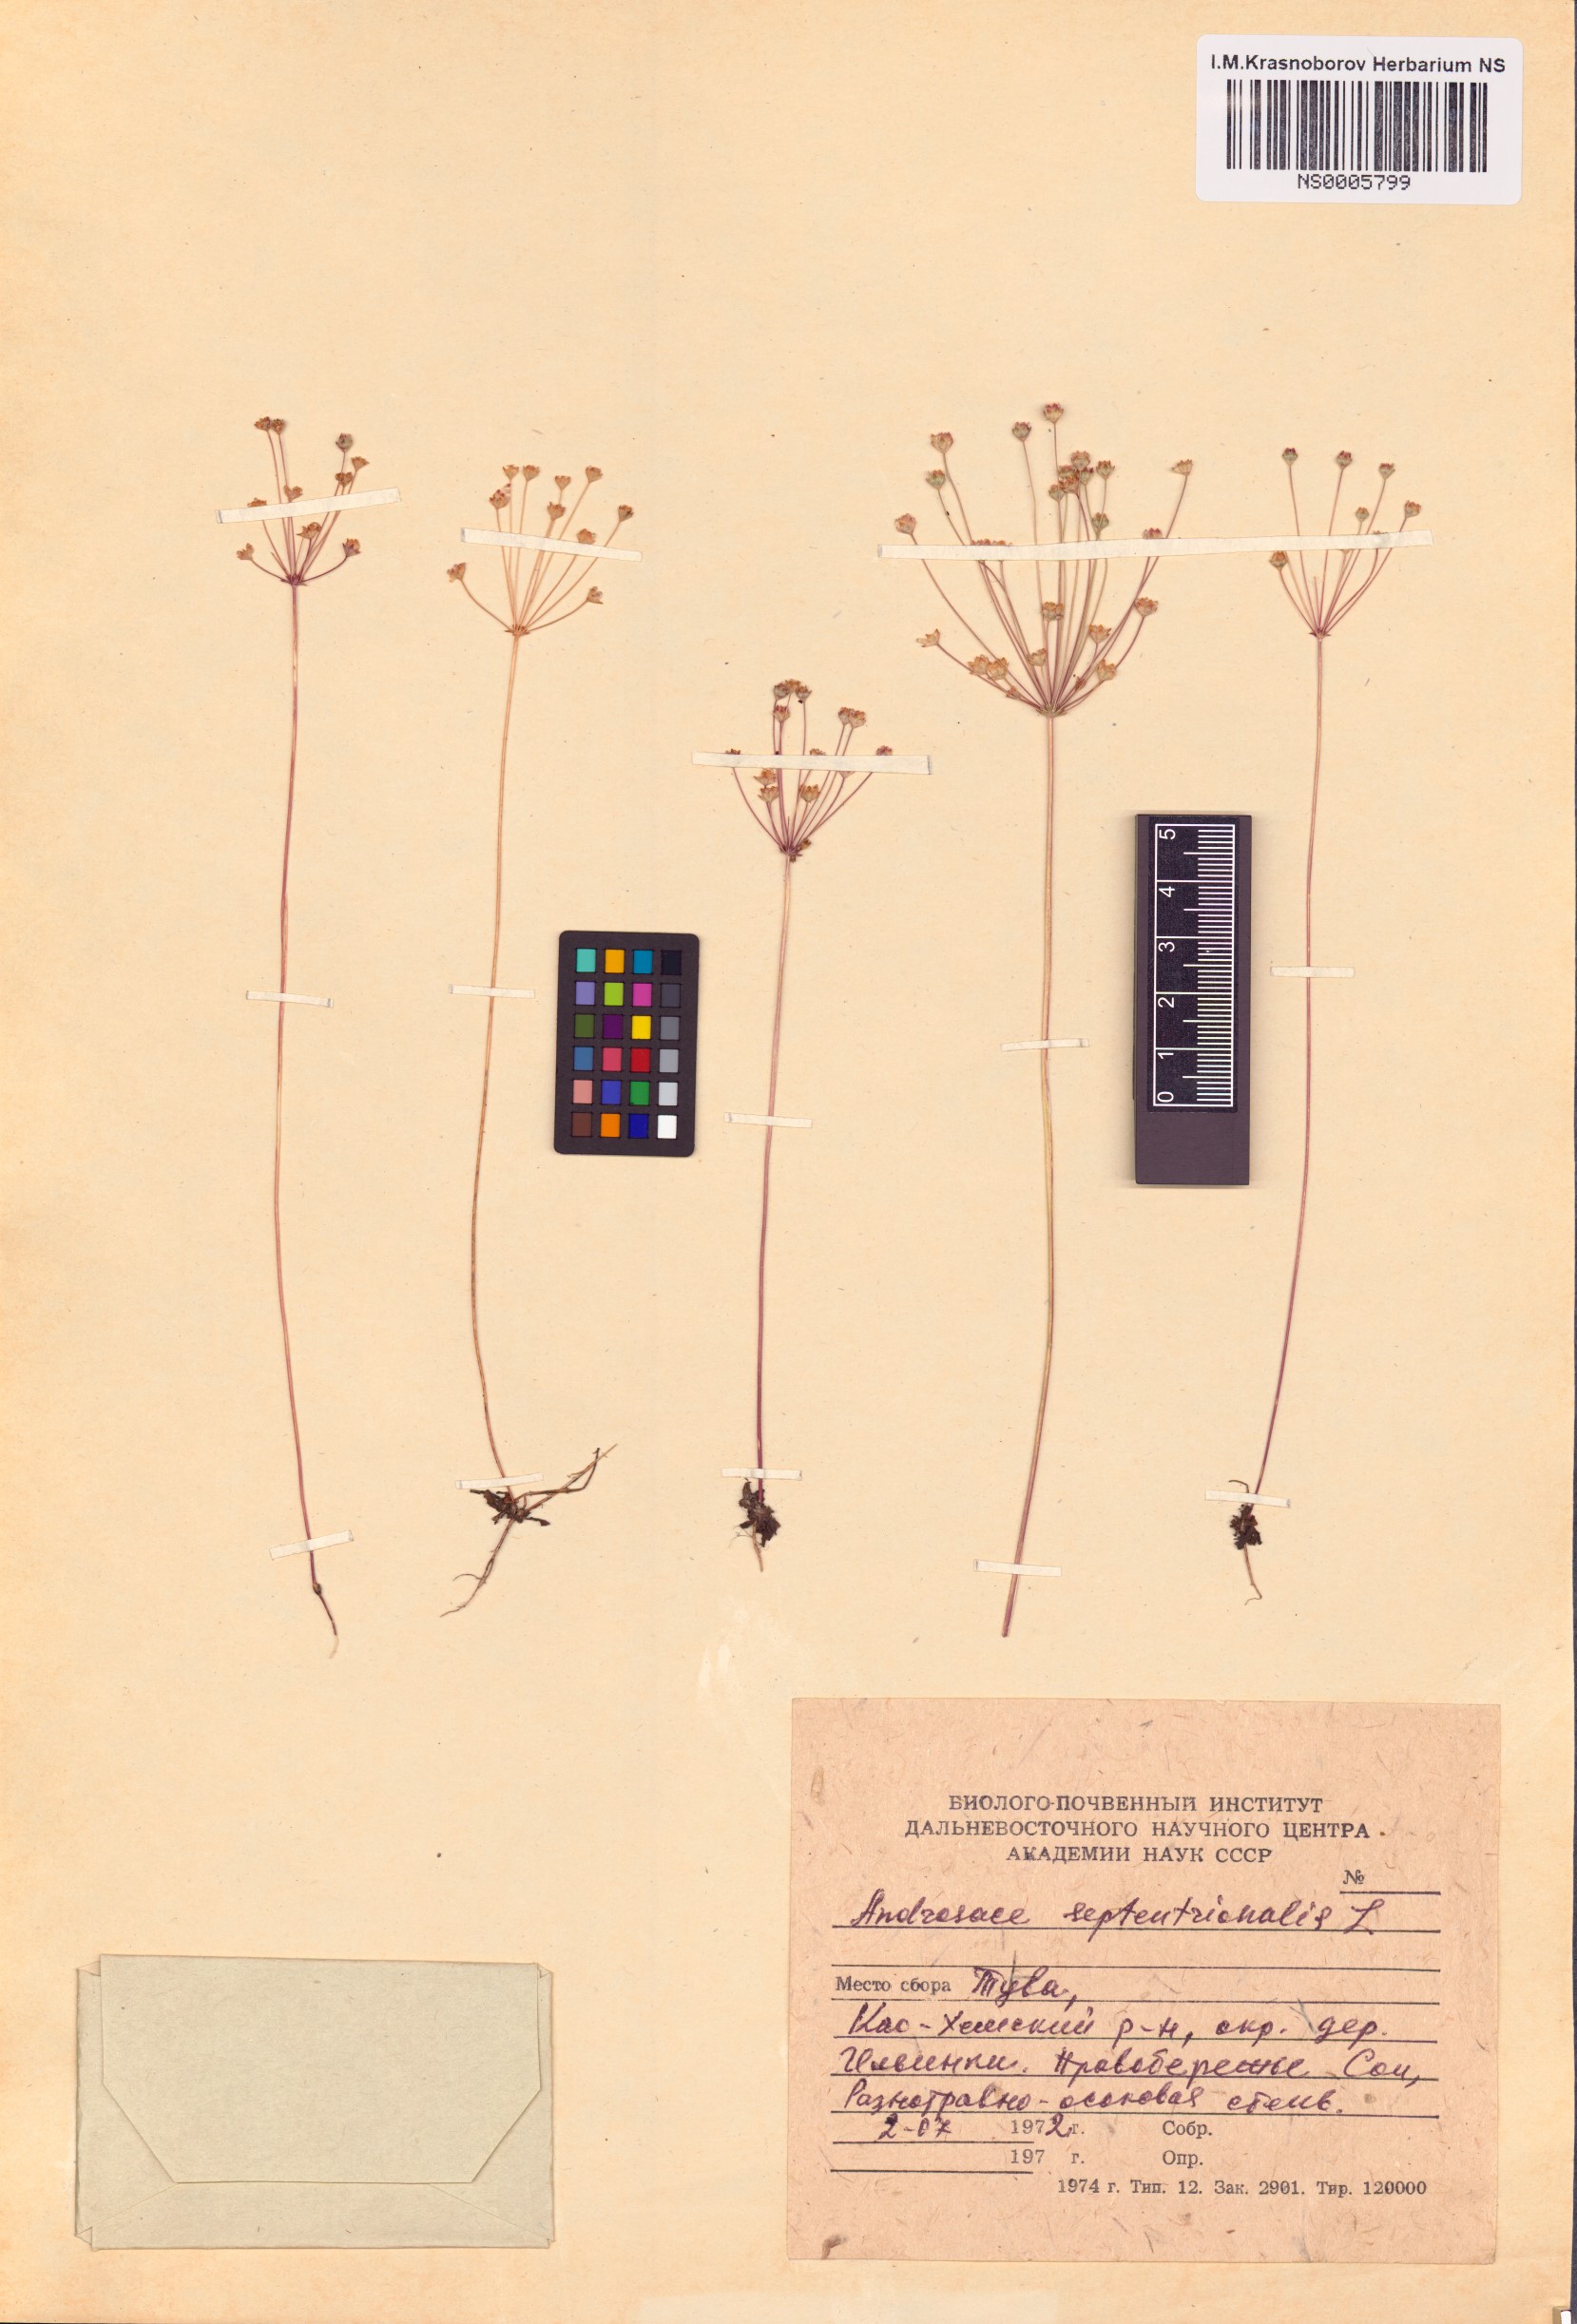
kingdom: Plantae
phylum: Tracheophyta
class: Magnoliopsida
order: Ericales
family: Primulaceae
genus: Androsace
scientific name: Androsace septentrionalis
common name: Hairy northern fairy-candelabra
